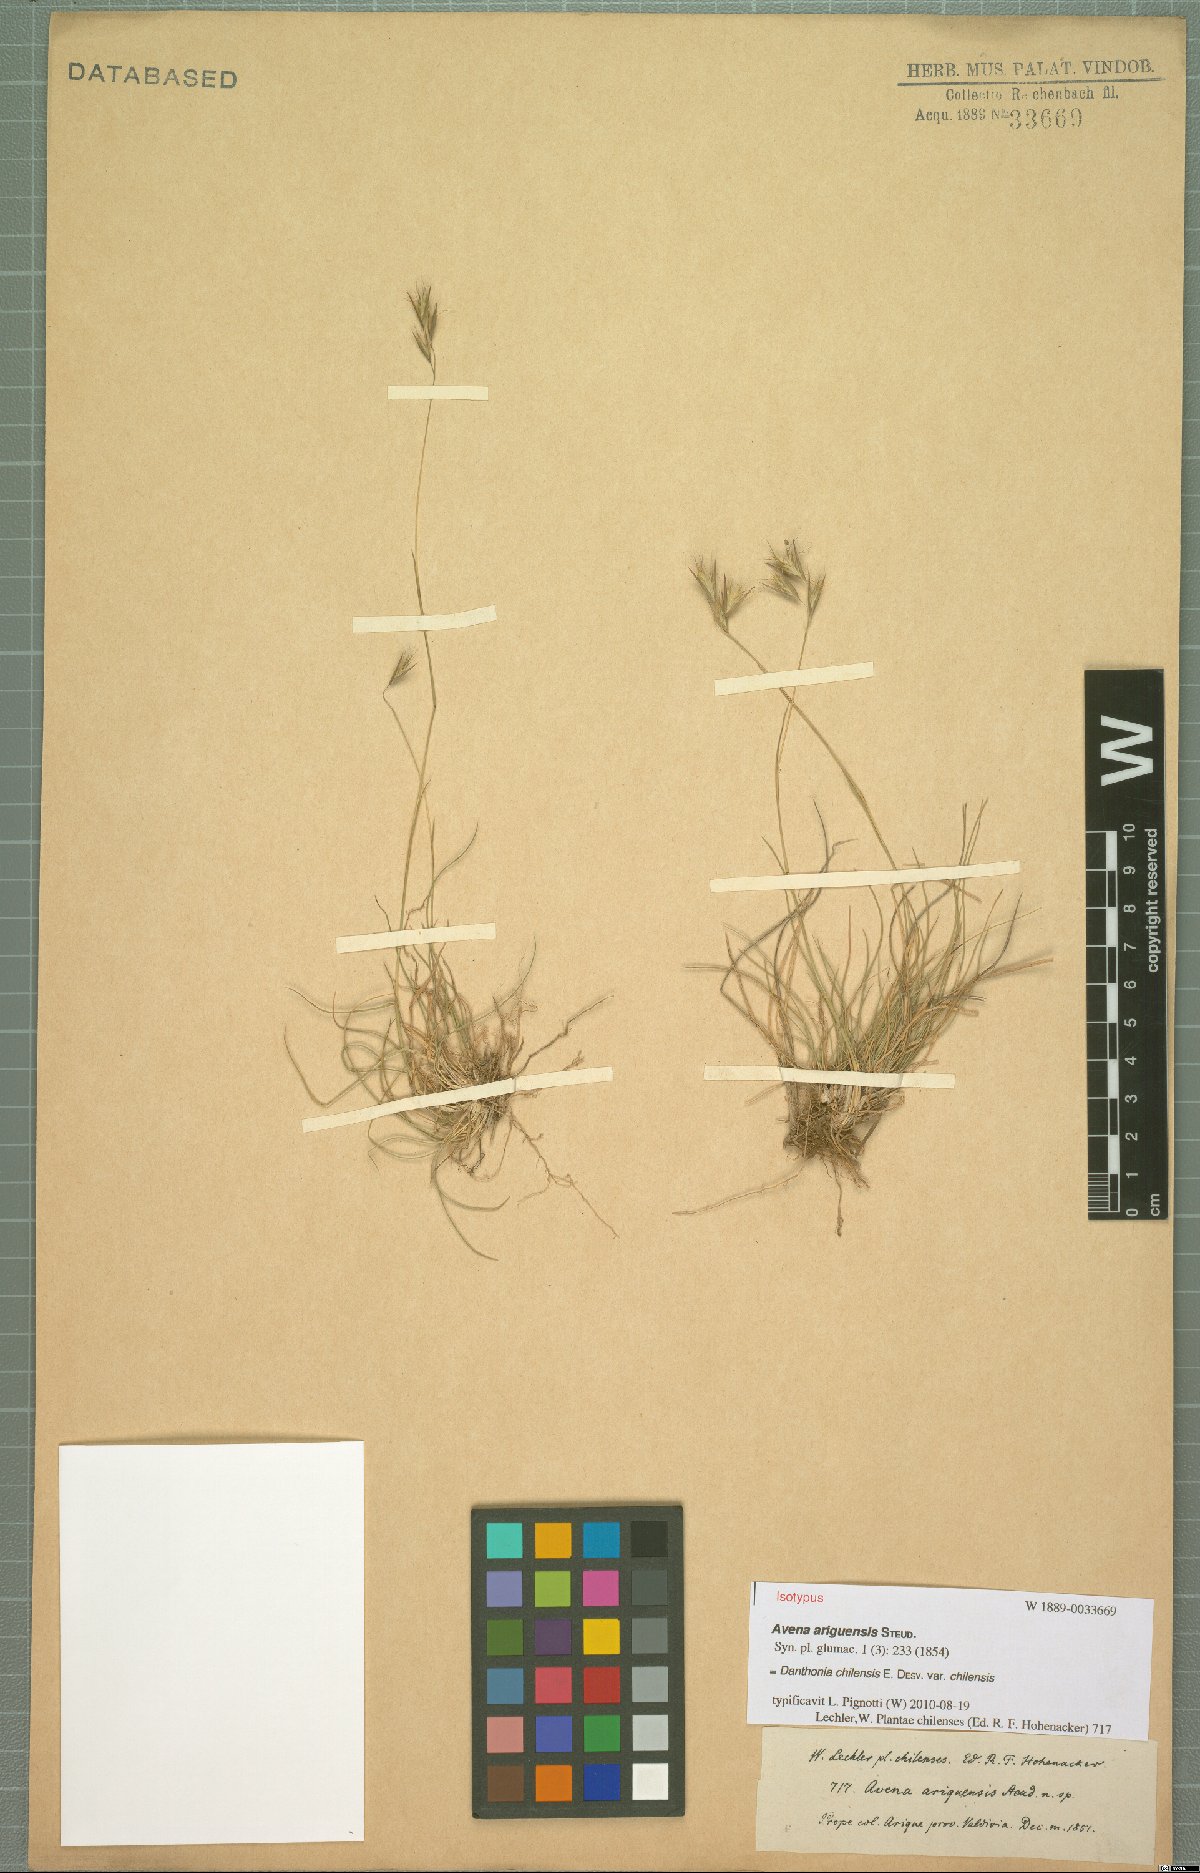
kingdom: Plantae
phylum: Tracheophyta
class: Liliopsida
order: Poales
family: Poaceae
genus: Danthonia
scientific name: Danthonia chilensis
